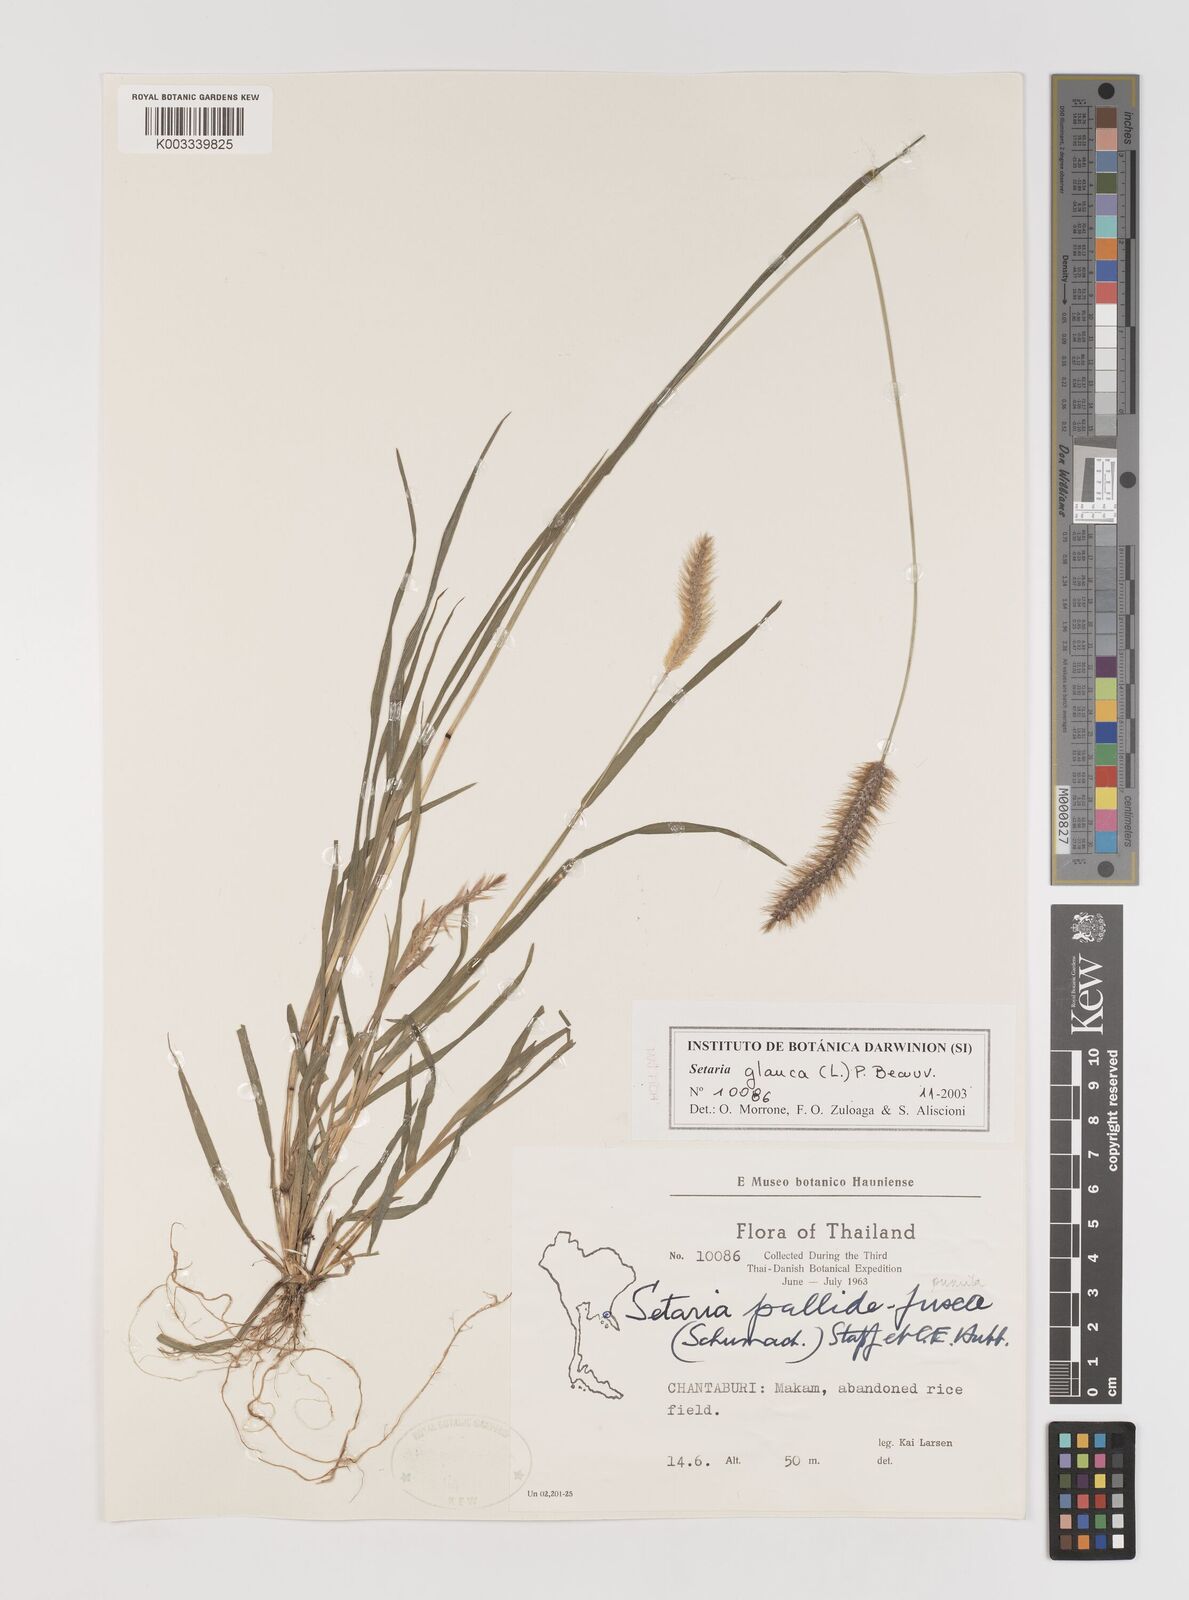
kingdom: Plantae
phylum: Tracheophyta
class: Liliopsida
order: Poales
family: Poaceae
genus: Setaria
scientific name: Setaria pumila
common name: Yellow bristle-grass
